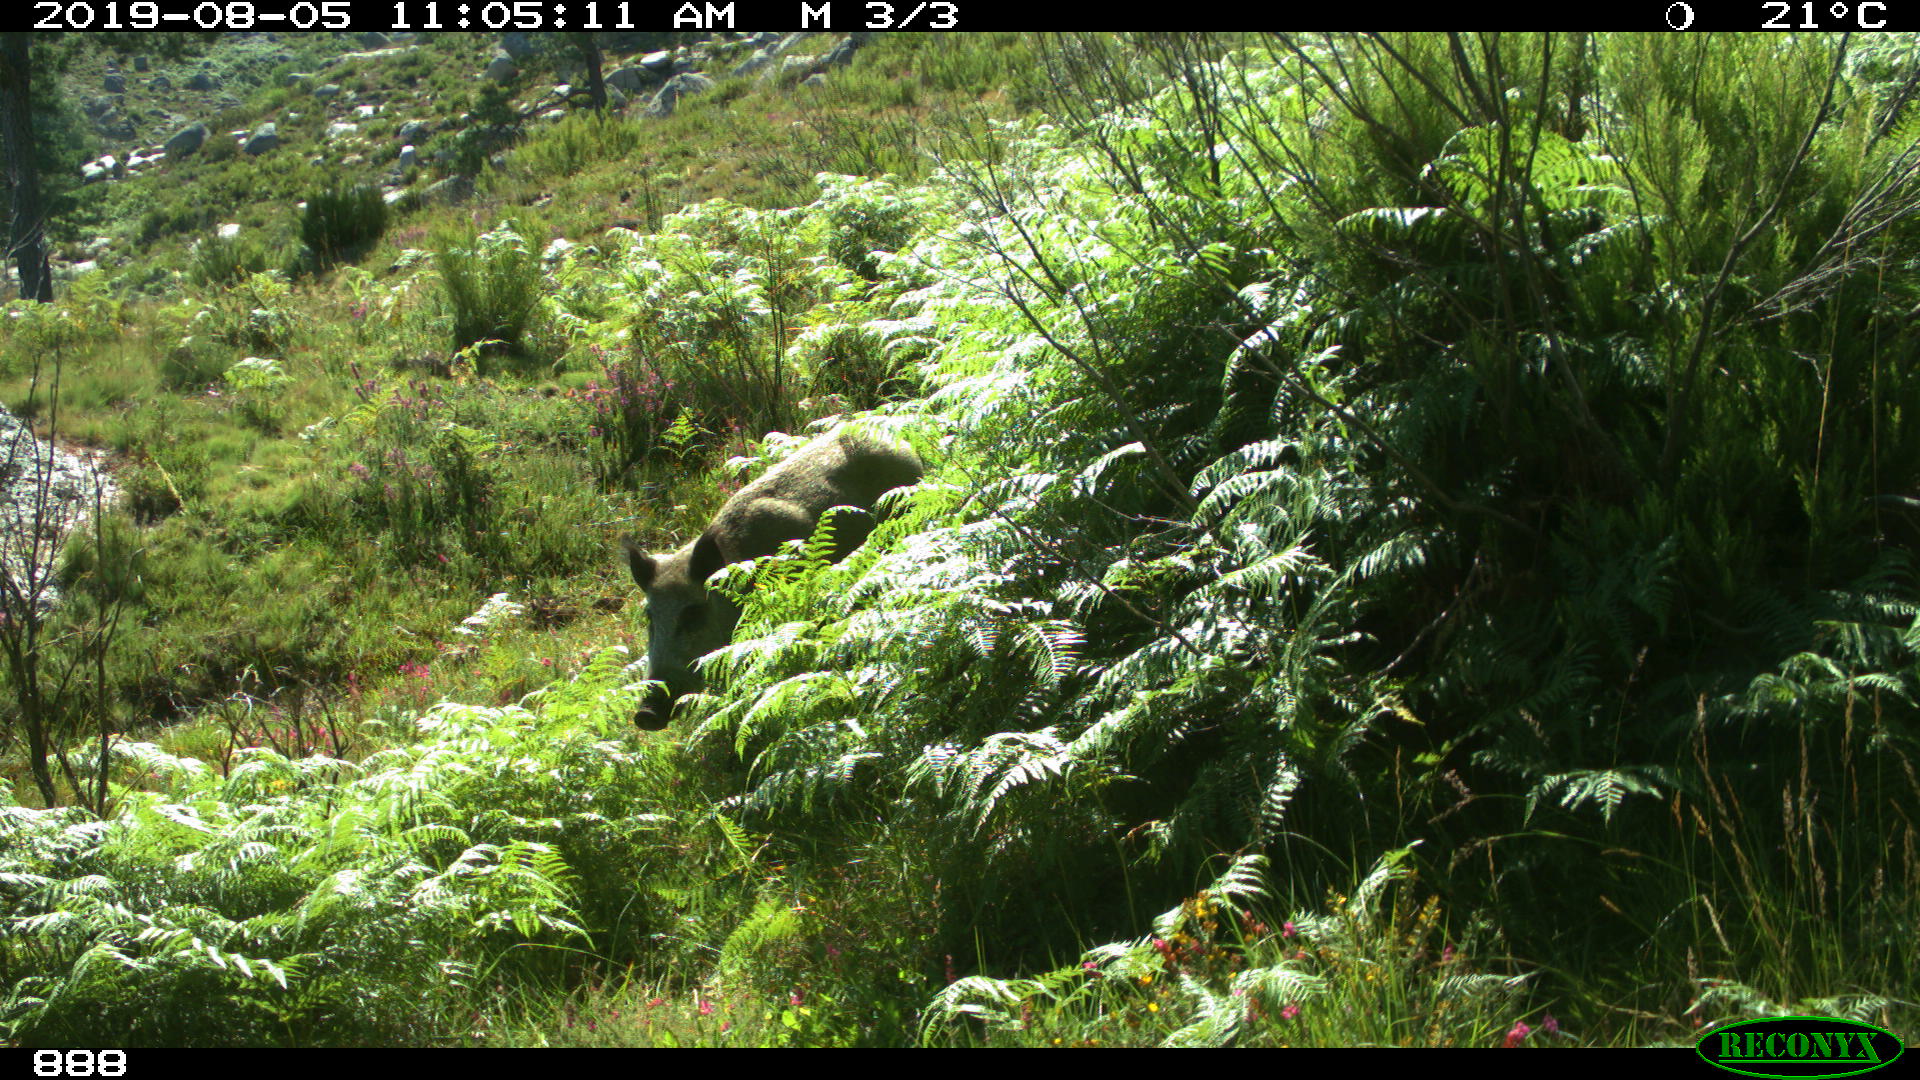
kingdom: Animalia
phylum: Chordata
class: Mammalia
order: Artiodactyla
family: Suidae
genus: Sus
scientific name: Sus scrofa
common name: Wild boar
